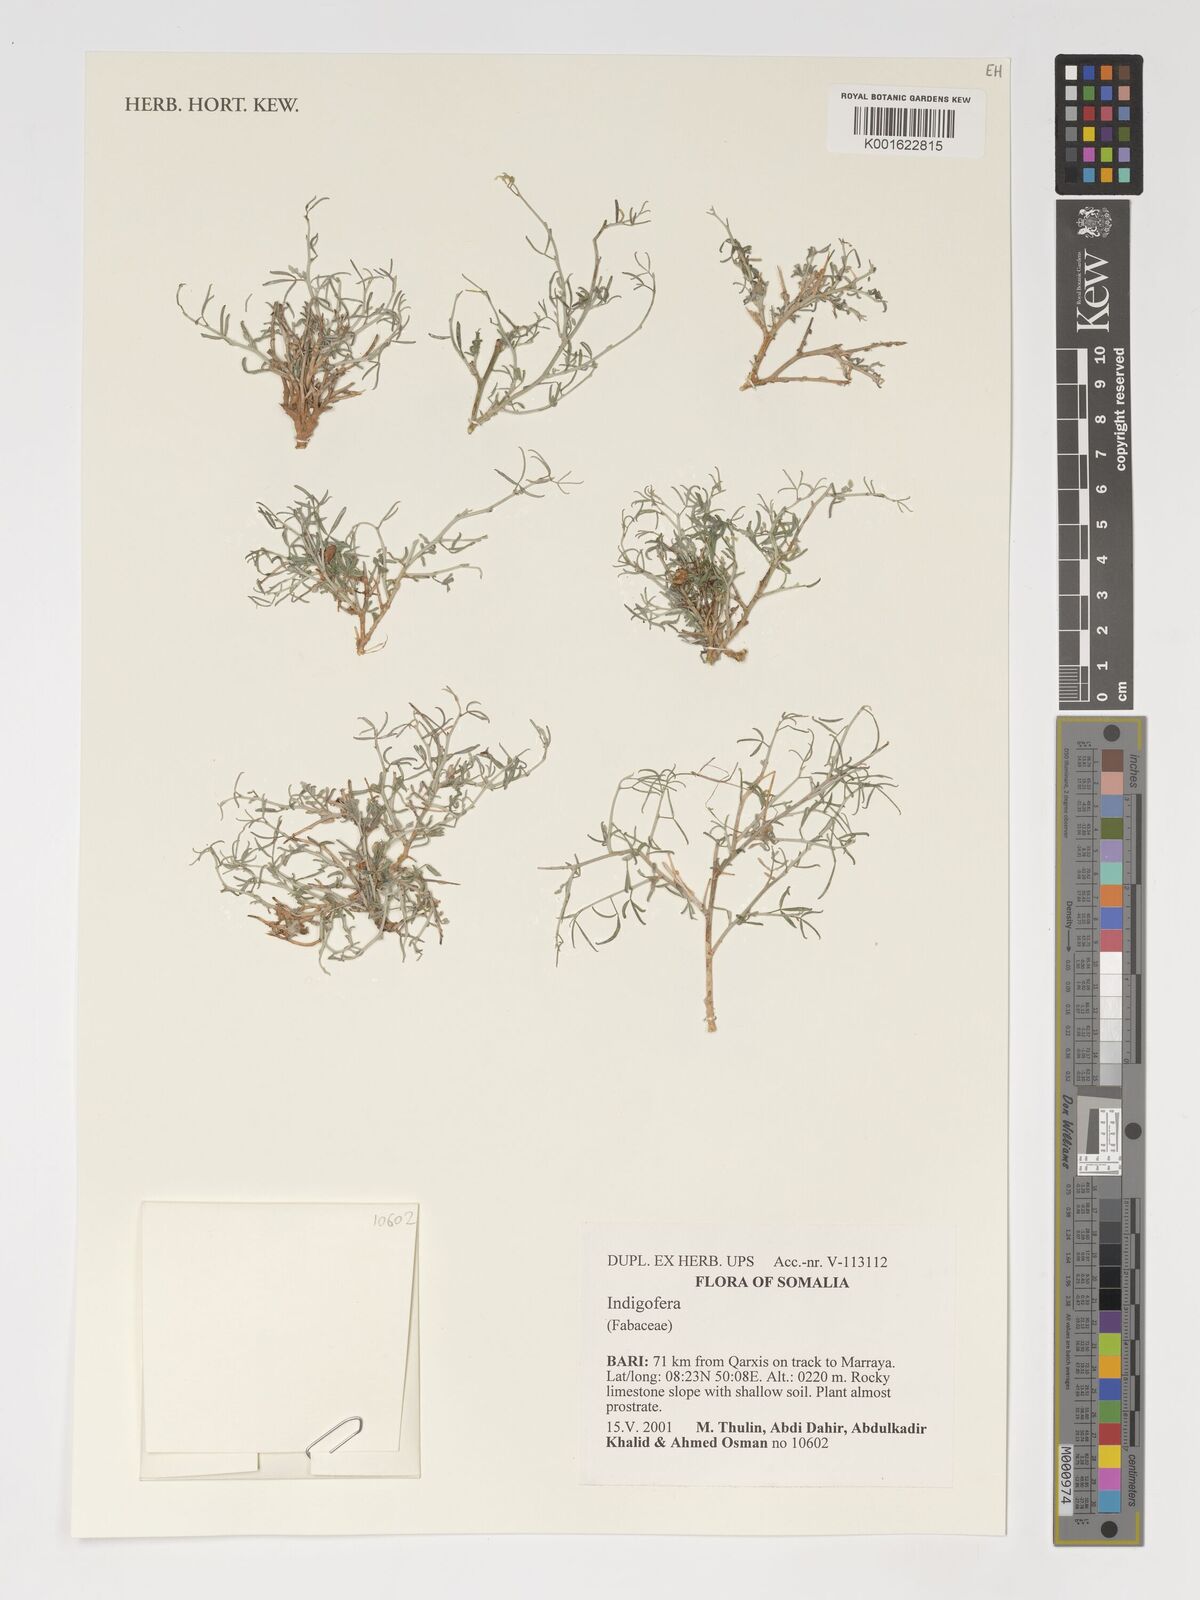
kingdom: Plantae
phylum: Tracheophyta
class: Magnoliopsida
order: Fabales
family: Fabaceae
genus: Indigofera
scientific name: Indigofera
